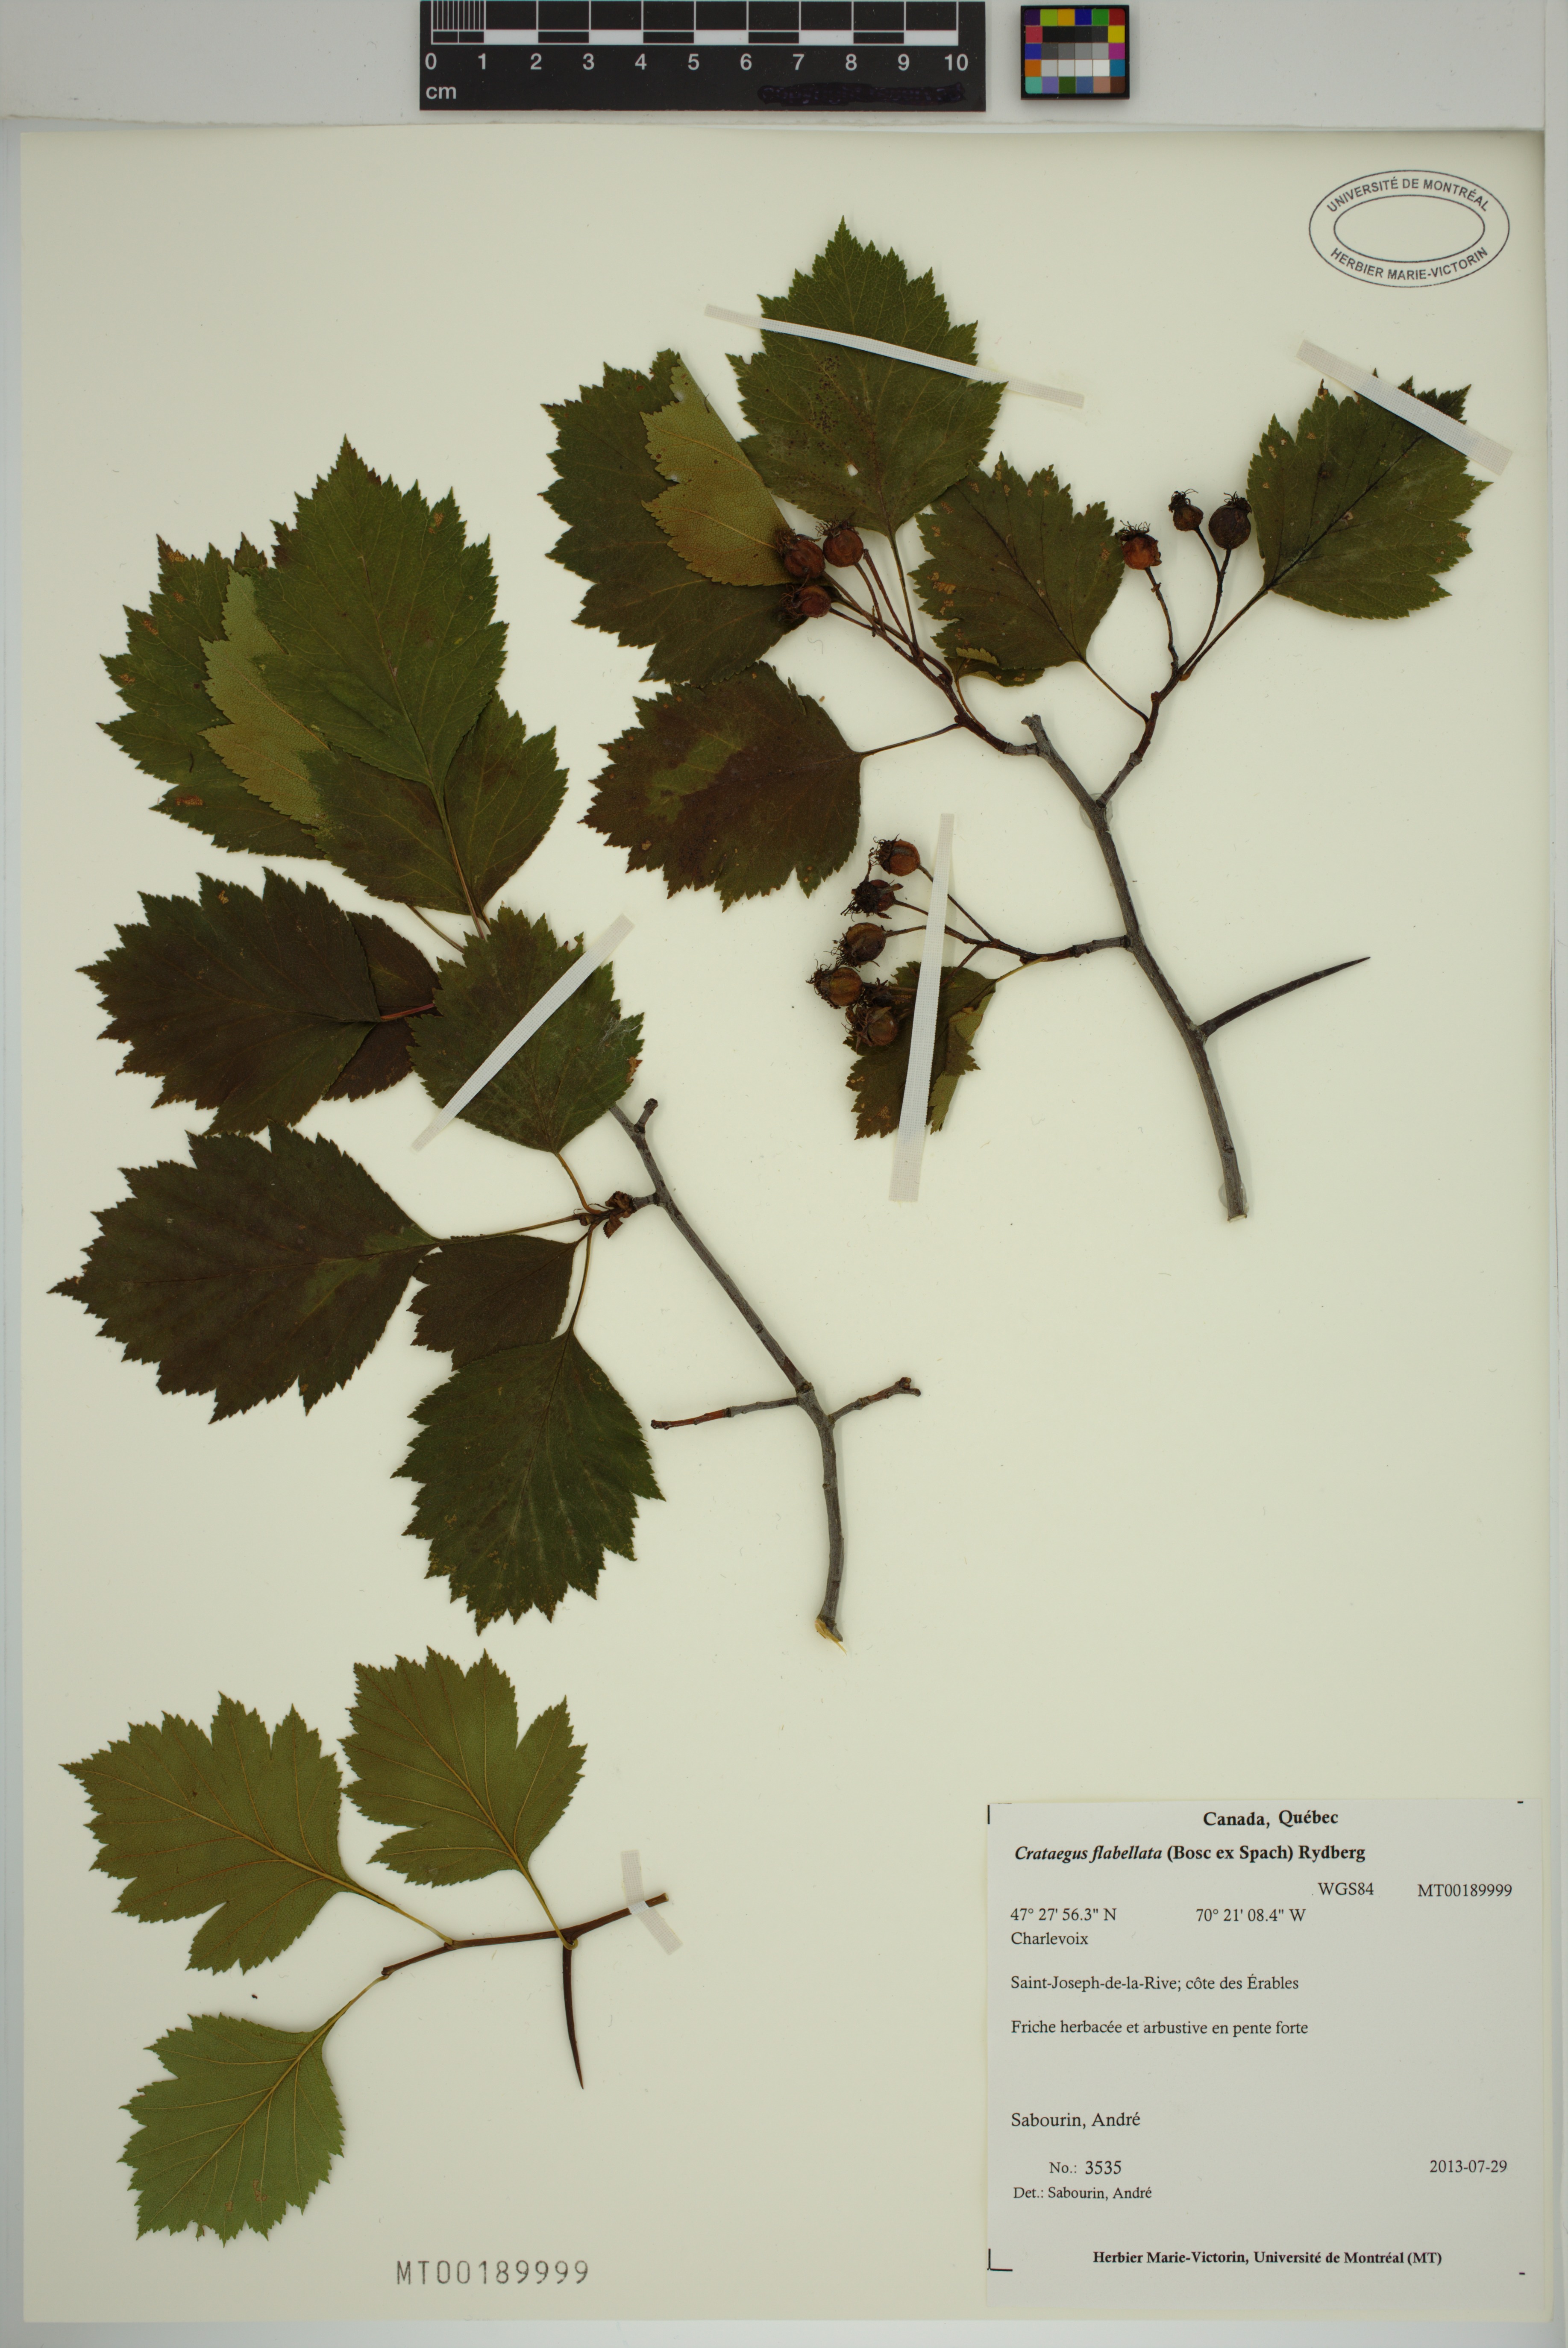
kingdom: Plantae
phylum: Tracheophyta
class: Magnoliopsida
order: Rosales
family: Rosaceae
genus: Crataegus
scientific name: Crataegus schuettei
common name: Schuette's hawthorn
